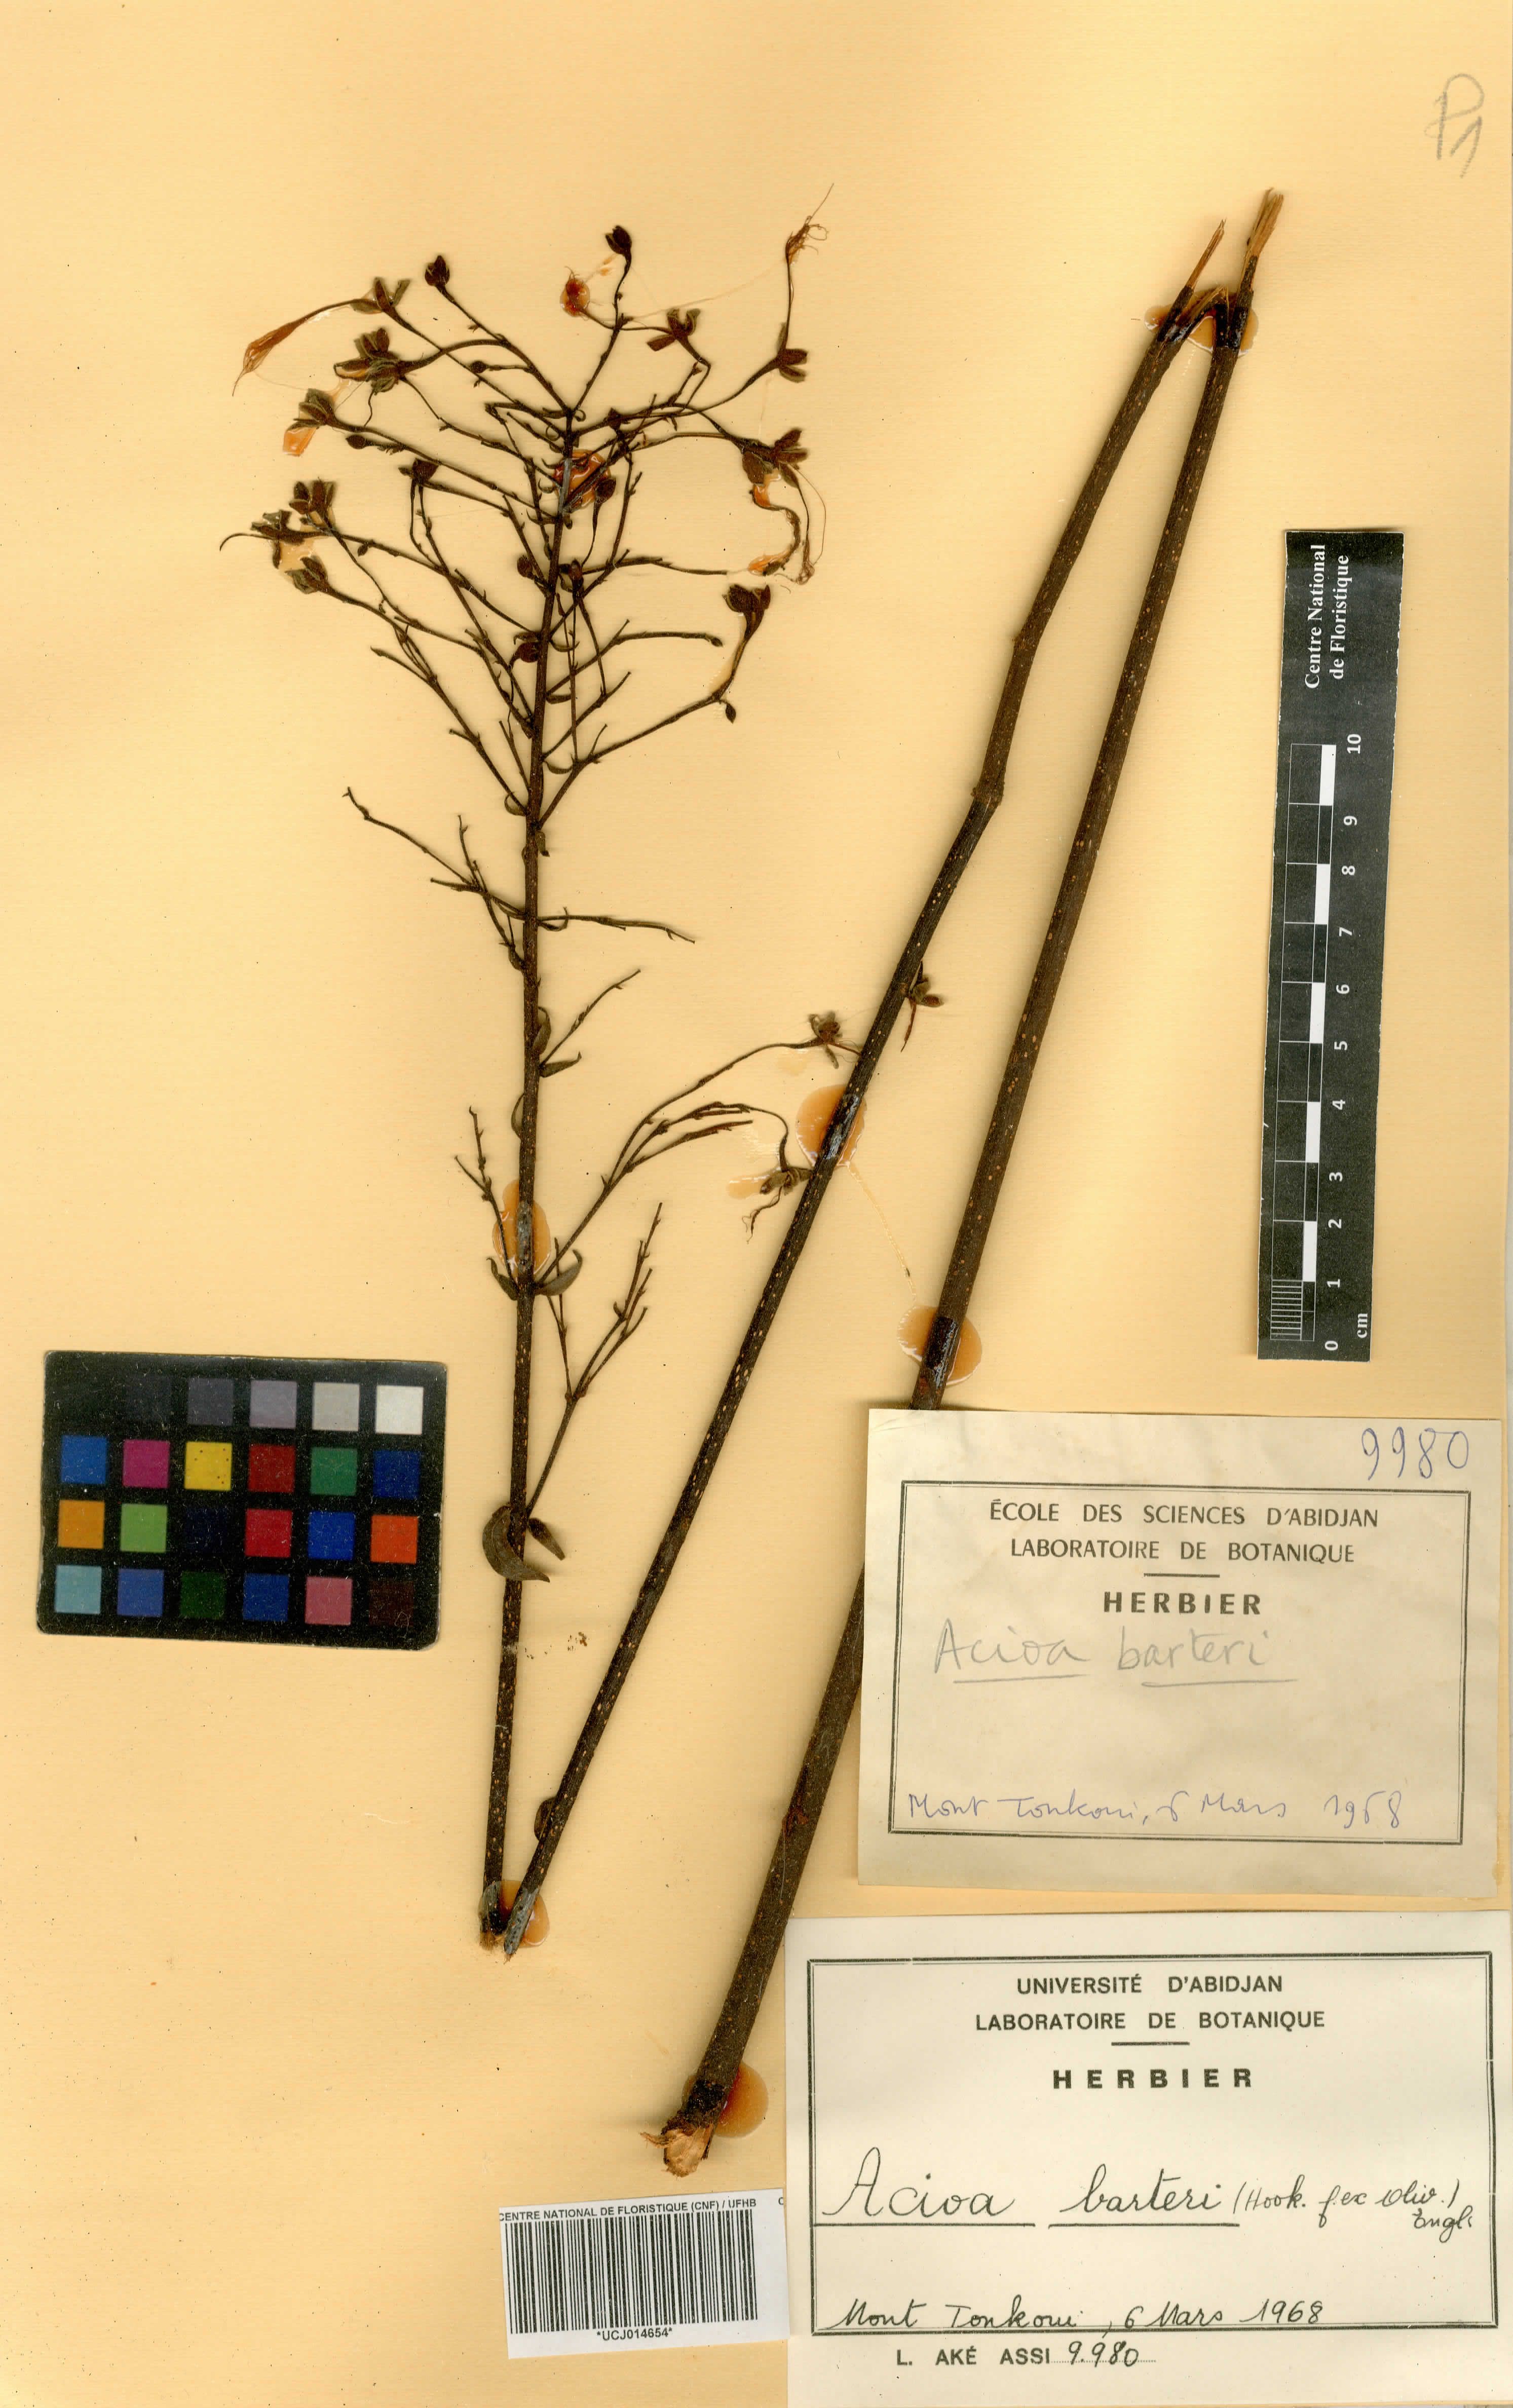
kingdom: Plantae
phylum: Tracheophyta
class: Magnoliopsida
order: Malpighiales
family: Chrysobalanaceae
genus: Dactyladenia
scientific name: Dactyladenia barteri
